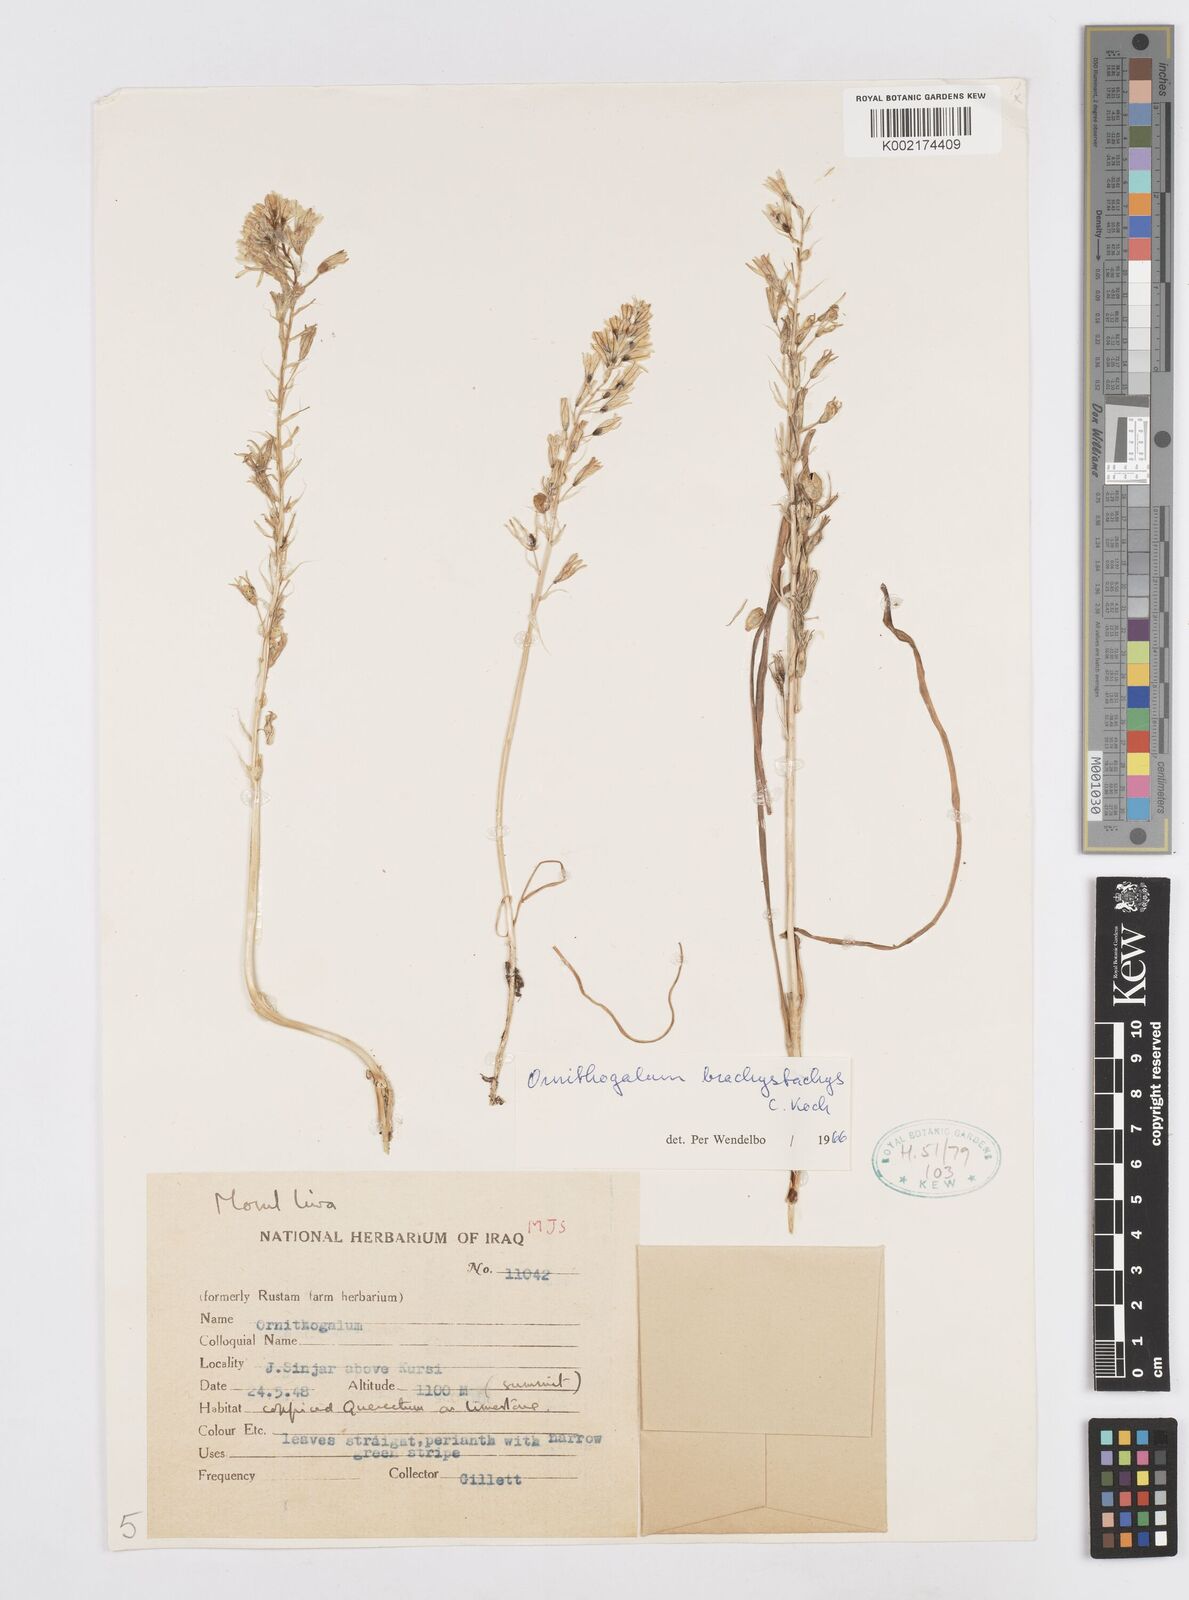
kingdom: Plantae
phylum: Tracheophyta
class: Liliopsida
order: Asparagales
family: Asparagaceae
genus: Ornithogalum
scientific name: Ornithogalum narbonense
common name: Bath-asparagus
